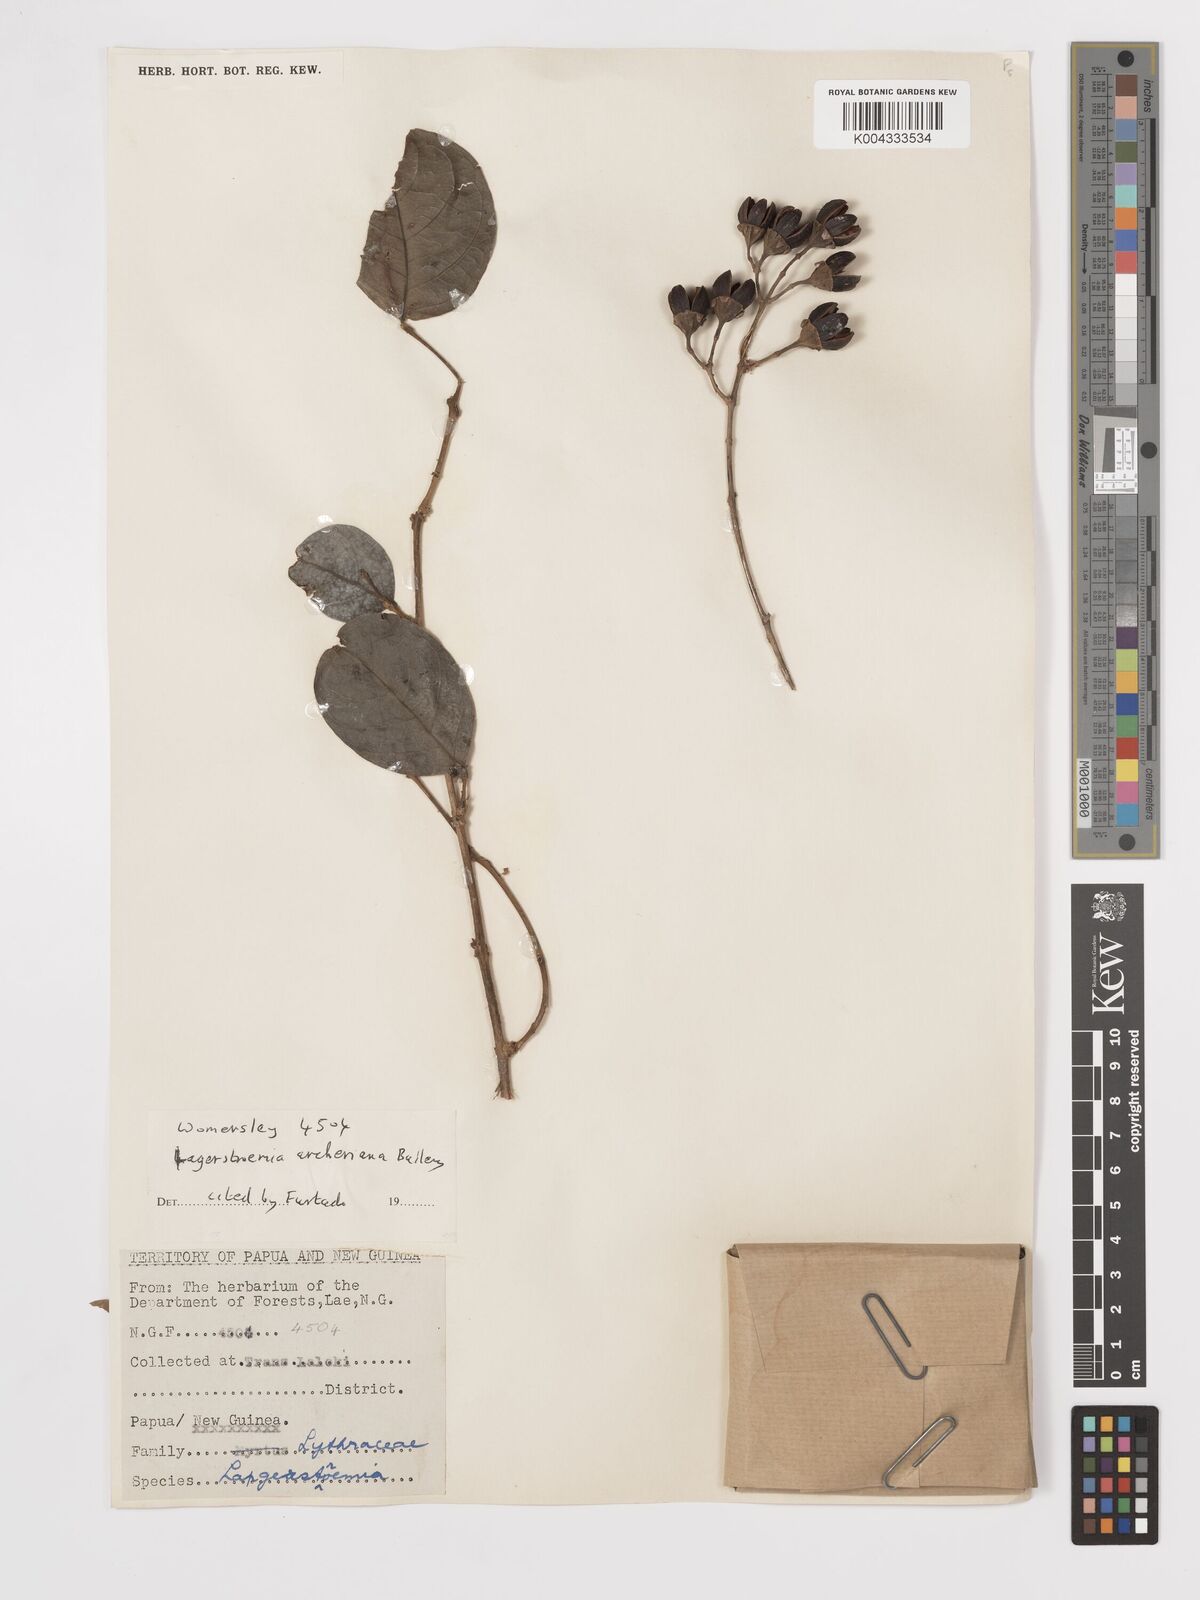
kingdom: Plantae
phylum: Tracheophyta
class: Magnoliopsida
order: Myrtales
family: Lythraceae
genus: Lagerstroemia
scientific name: Lagerstroemia engleriana
